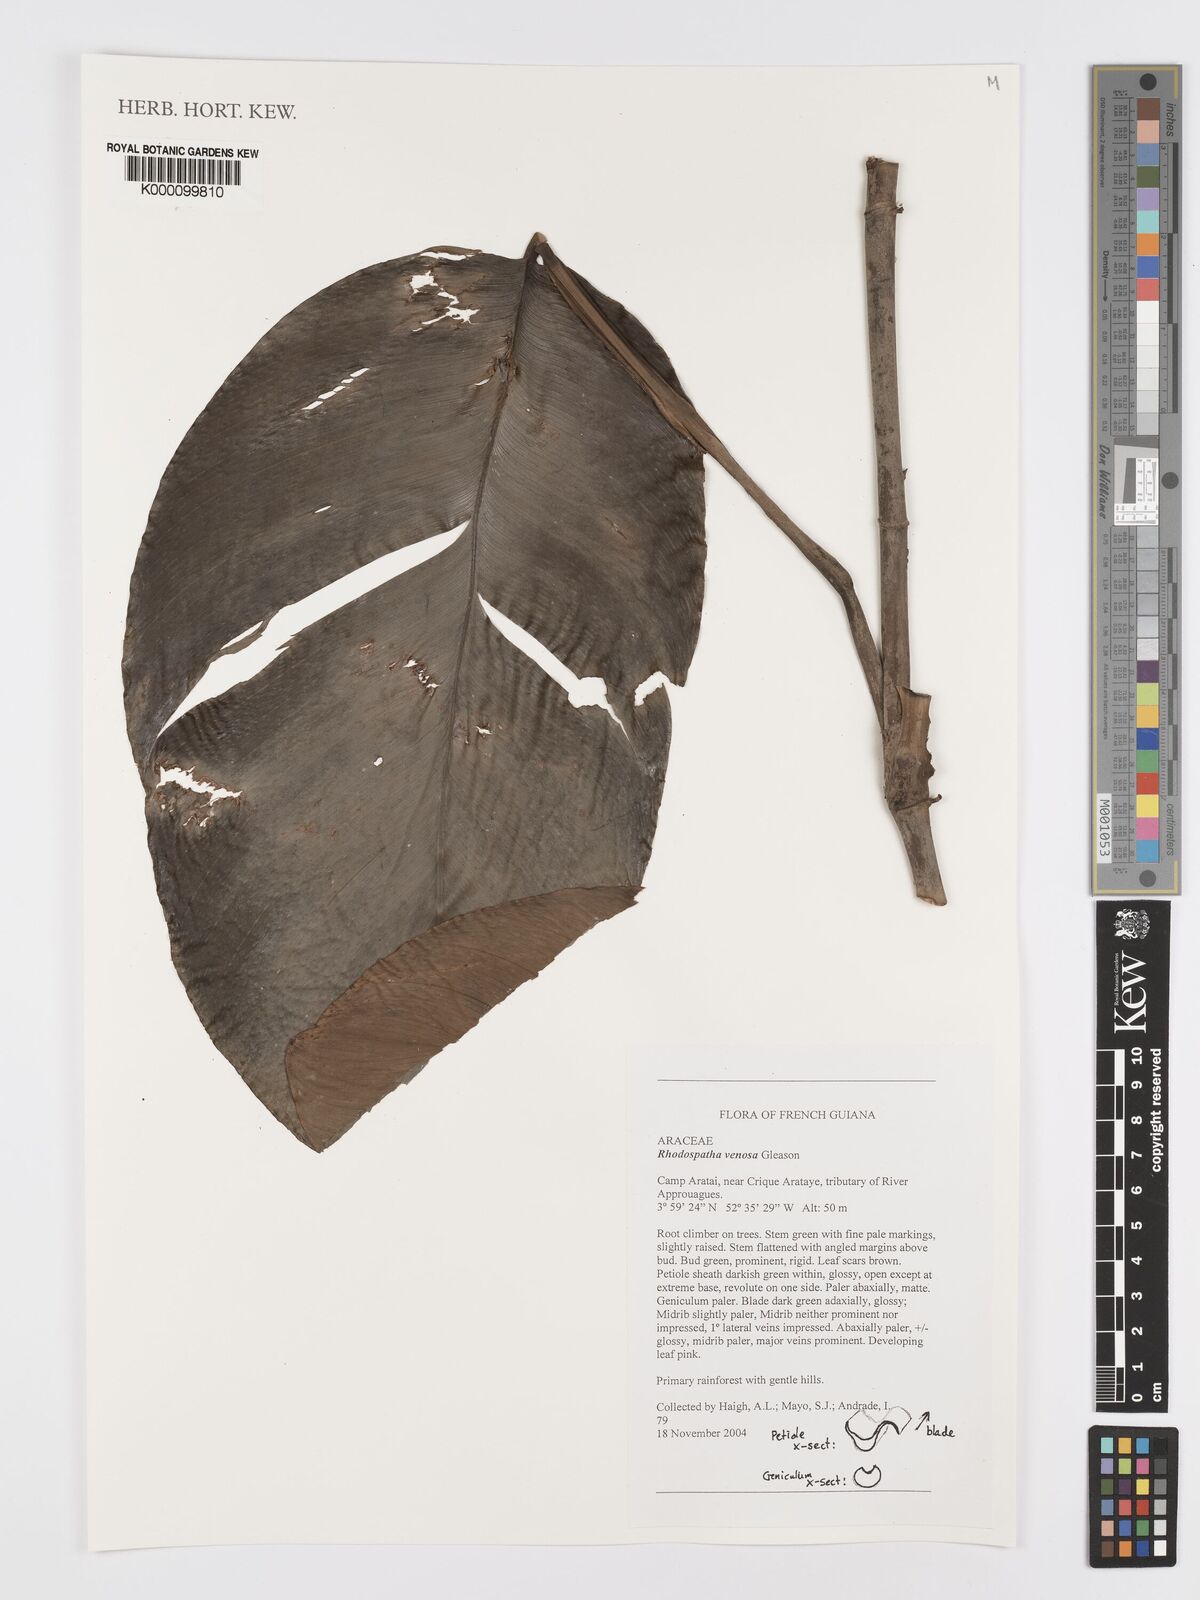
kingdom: Plantae
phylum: Tracheophyta
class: Liliopsida
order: Alismatales
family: Araceae
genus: Rhodospatha
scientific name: Rhodospatha venosa
